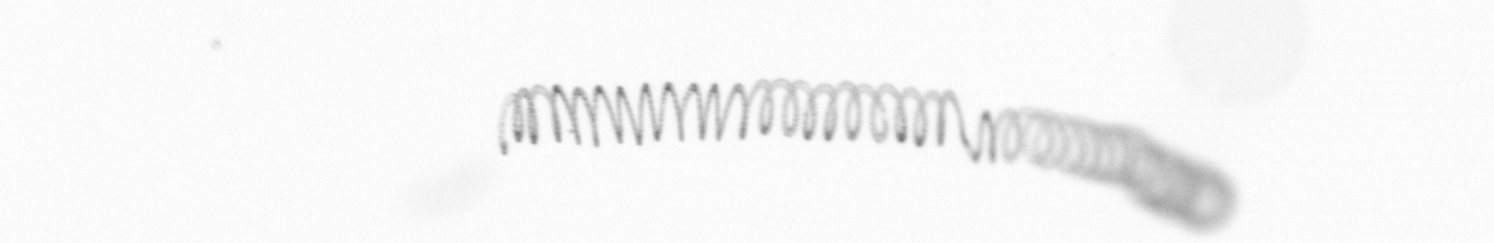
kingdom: Chromista
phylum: Ochrophyta
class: Bacillariophyceae
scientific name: Bacillariophyceae
